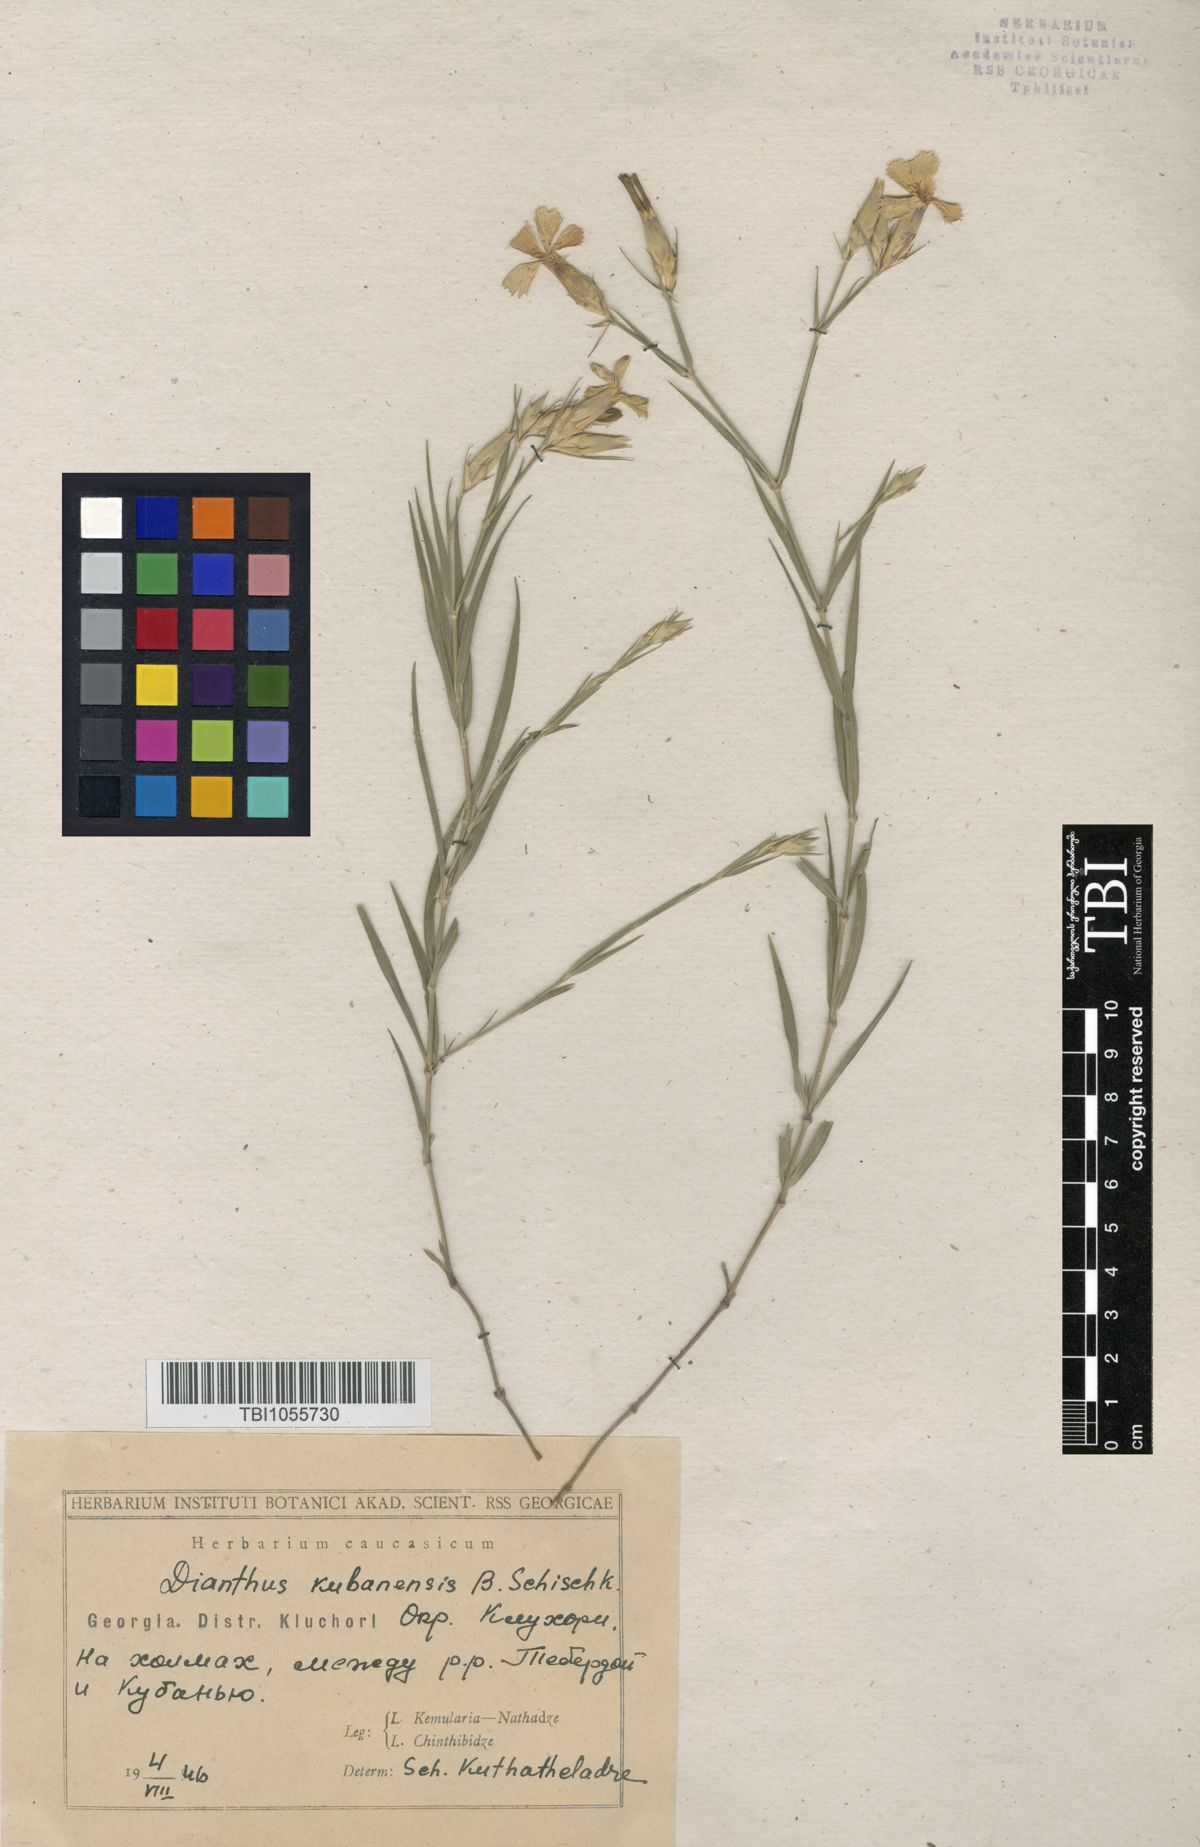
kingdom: Plantae
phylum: Tracheophyta
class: Magnoliopsida
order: Caryophyllales
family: Caryophyllaceae
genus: Dianthus
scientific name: Dianthus
